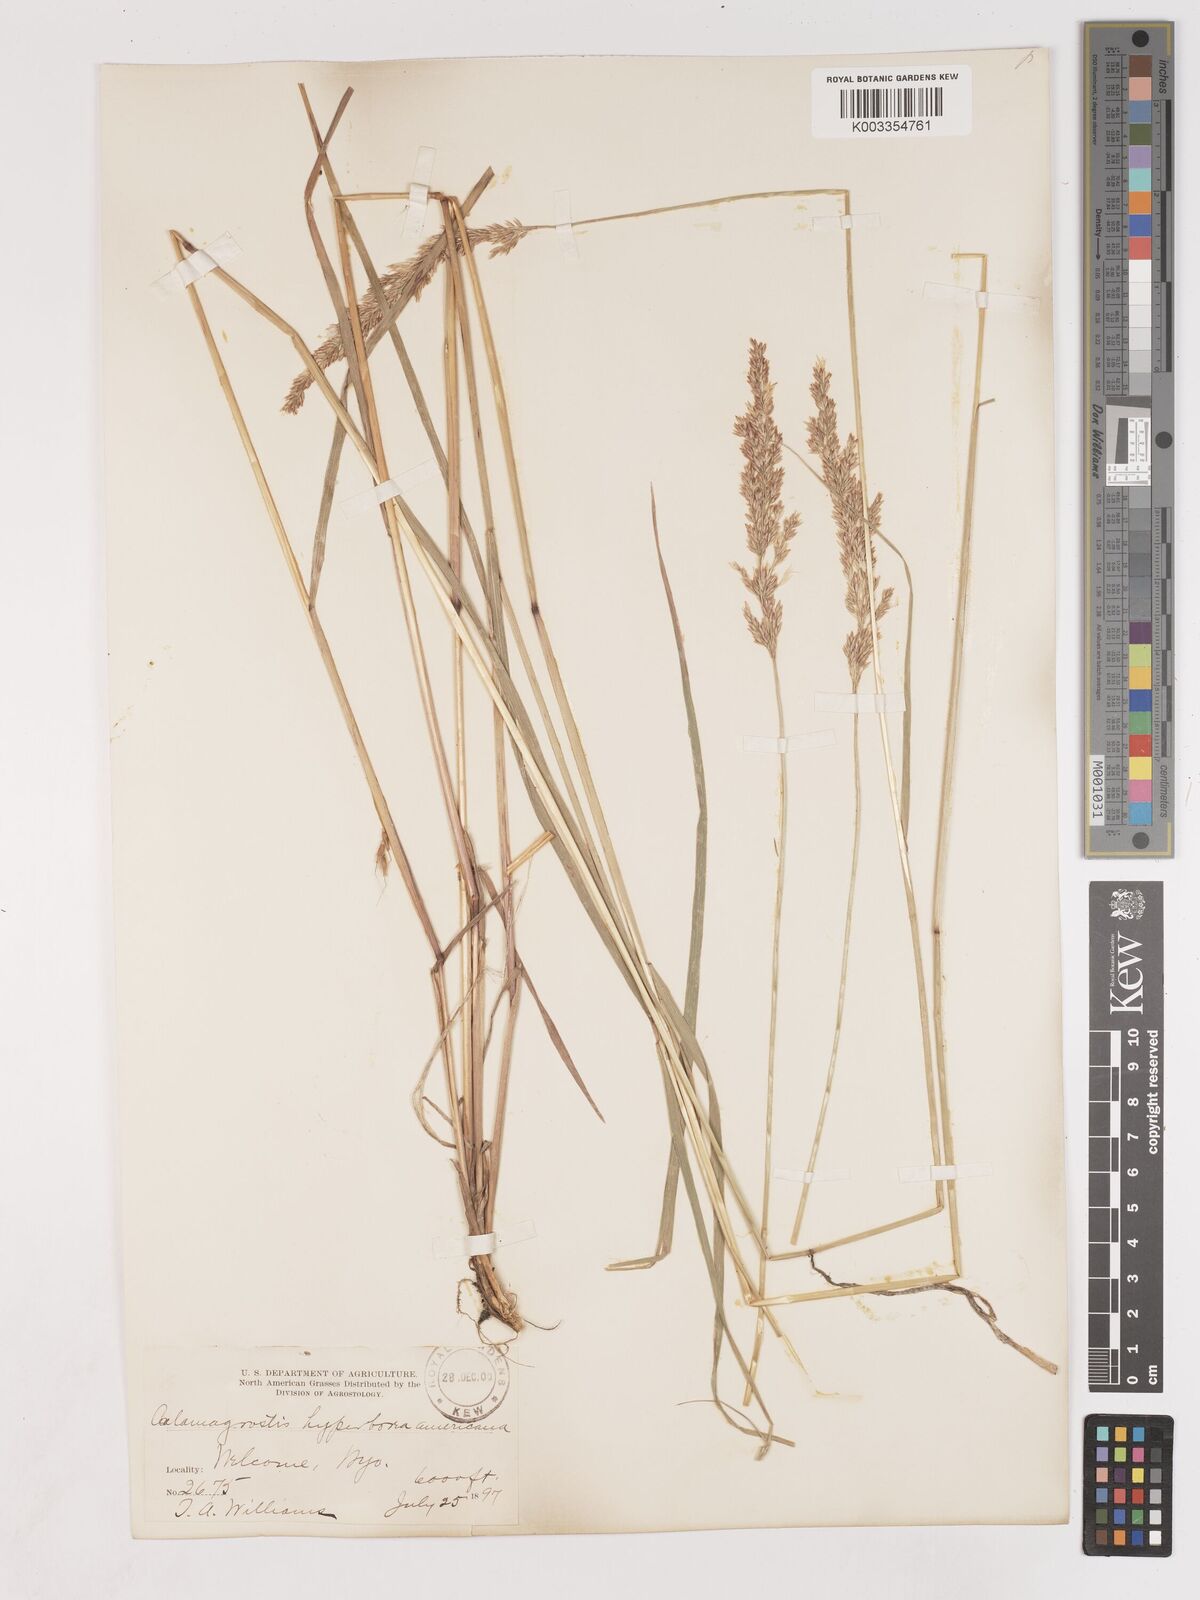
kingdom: Plantae
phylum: Tracheophyta
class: Liliopsida
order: Poales
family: Poaceae
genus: Cinnagrostis
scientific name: Cinnagrostis recta
